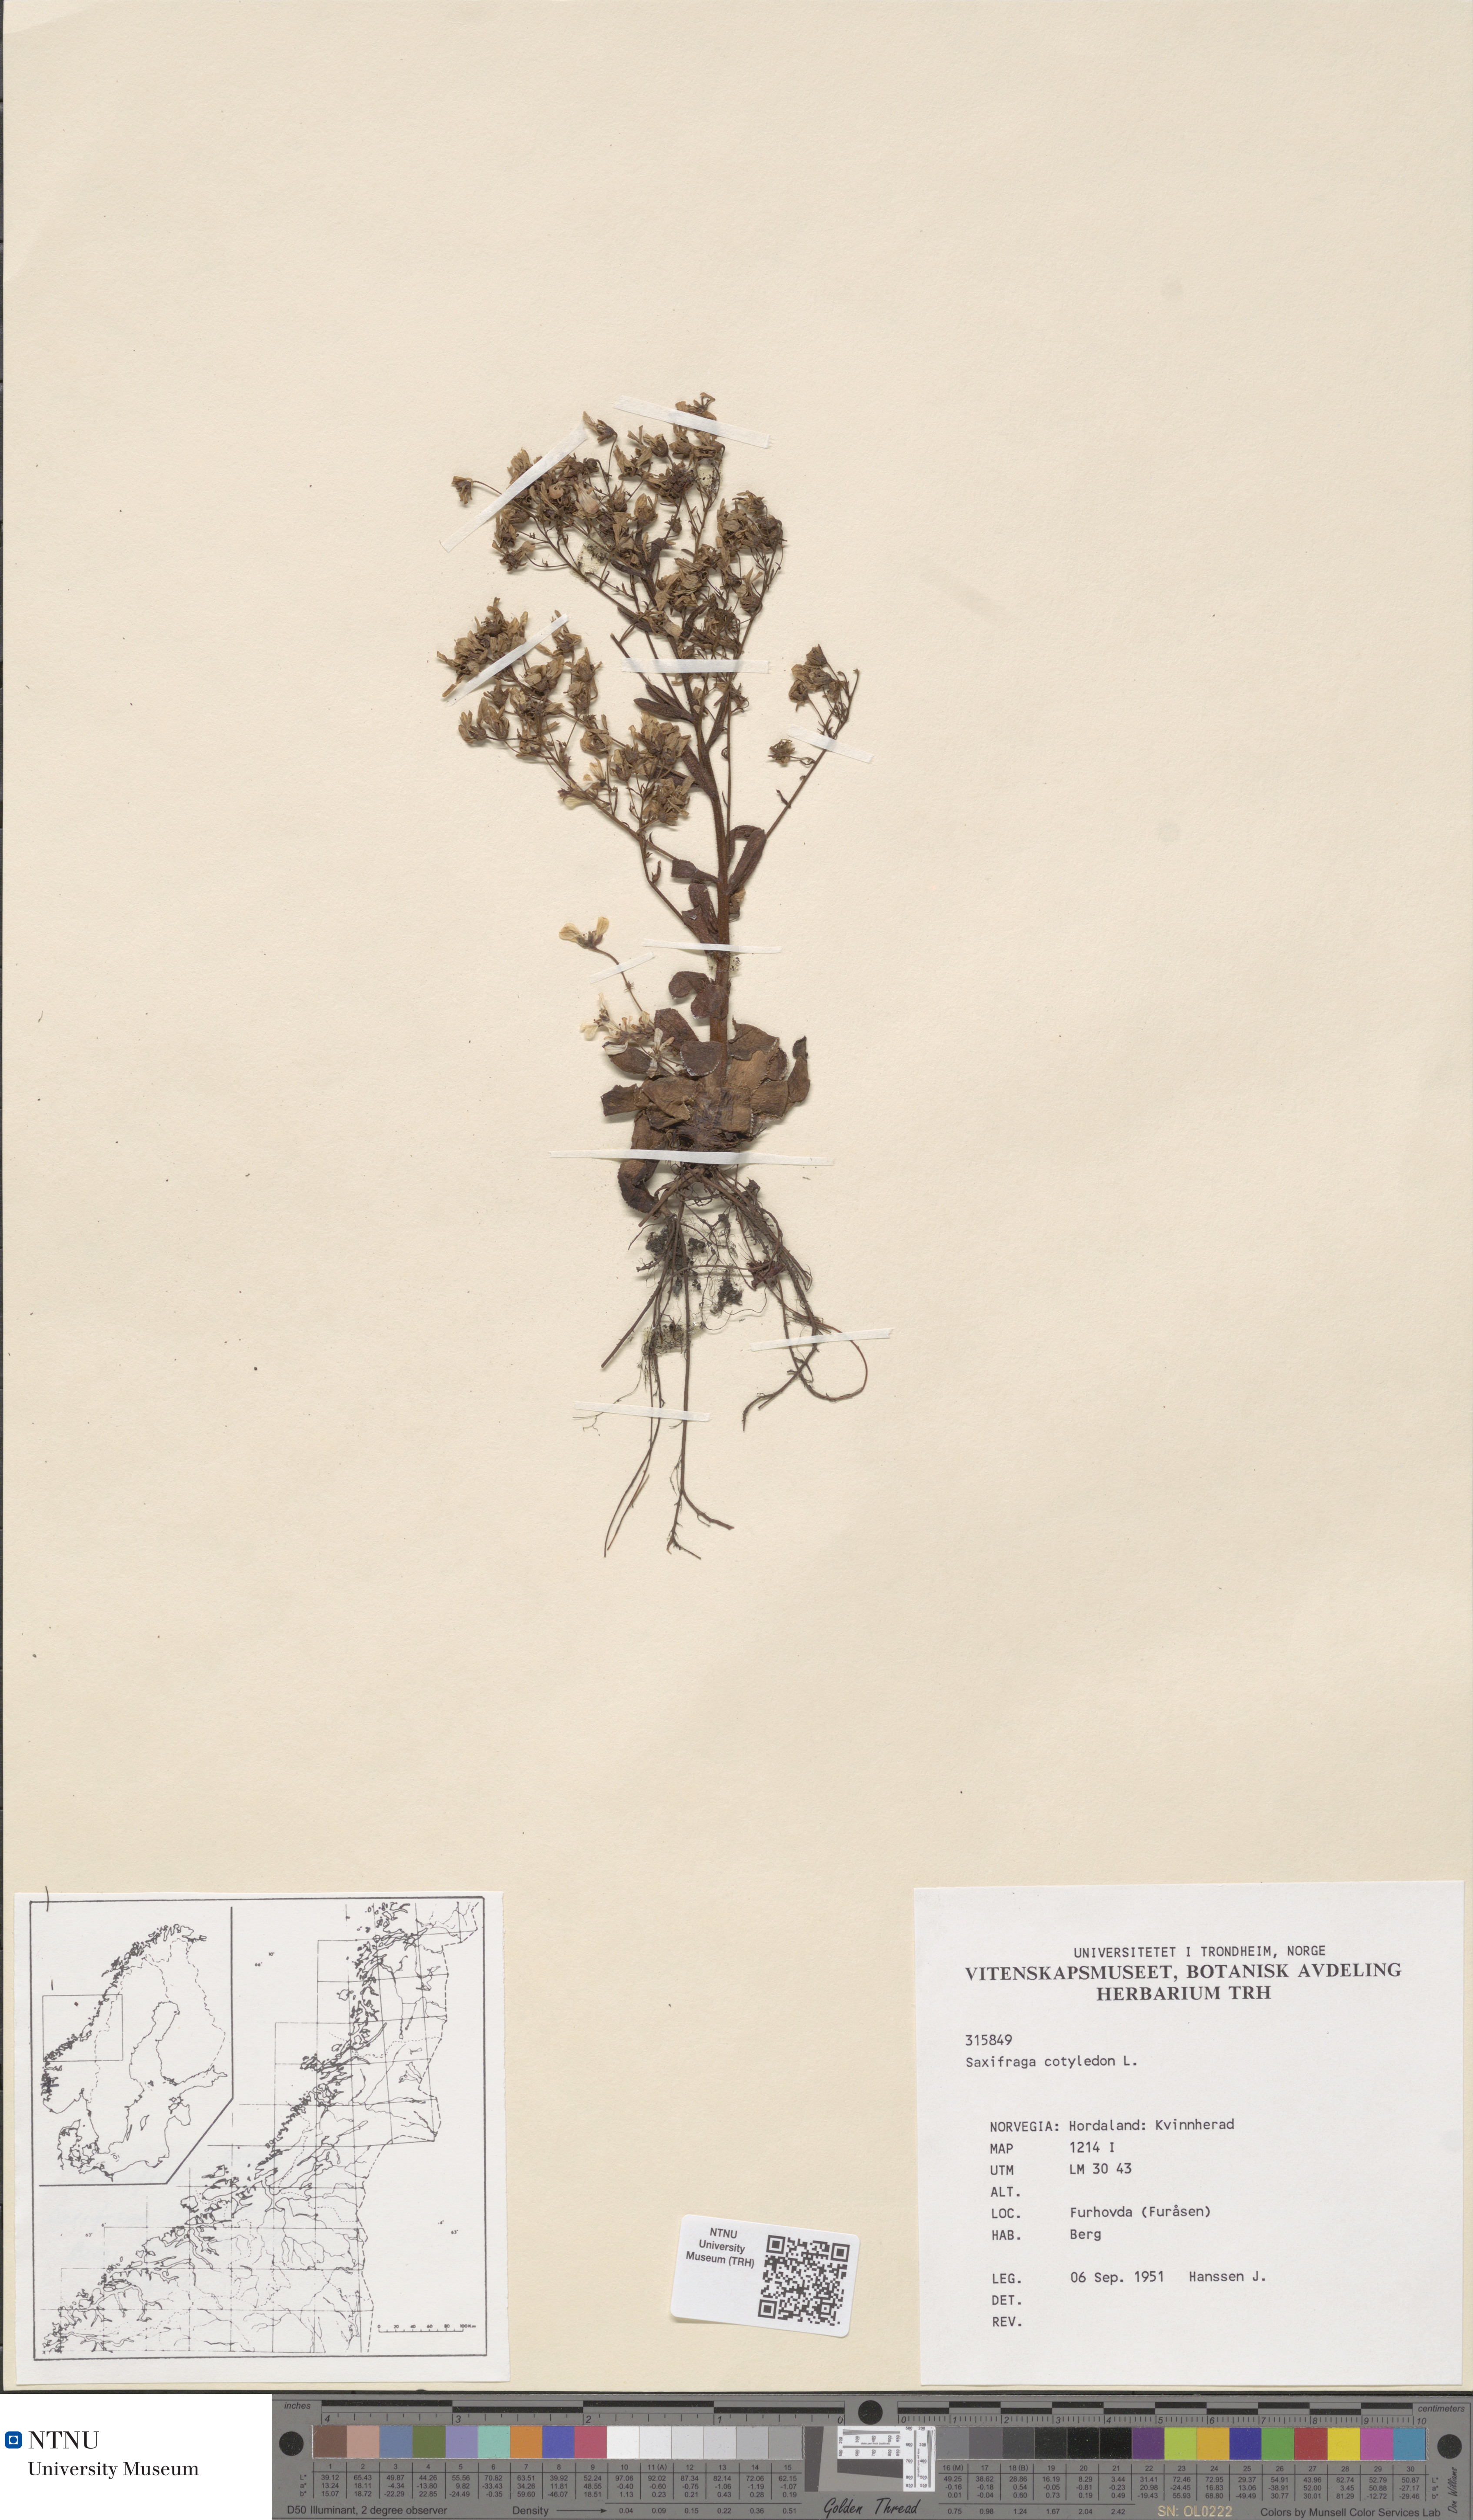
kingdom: Plantae
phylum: Tracheophyta
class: Magnoliopsida
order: Saxifragales
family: Saxifragaceae
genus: Saxifraga
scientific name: Saxifraga cotyledon
